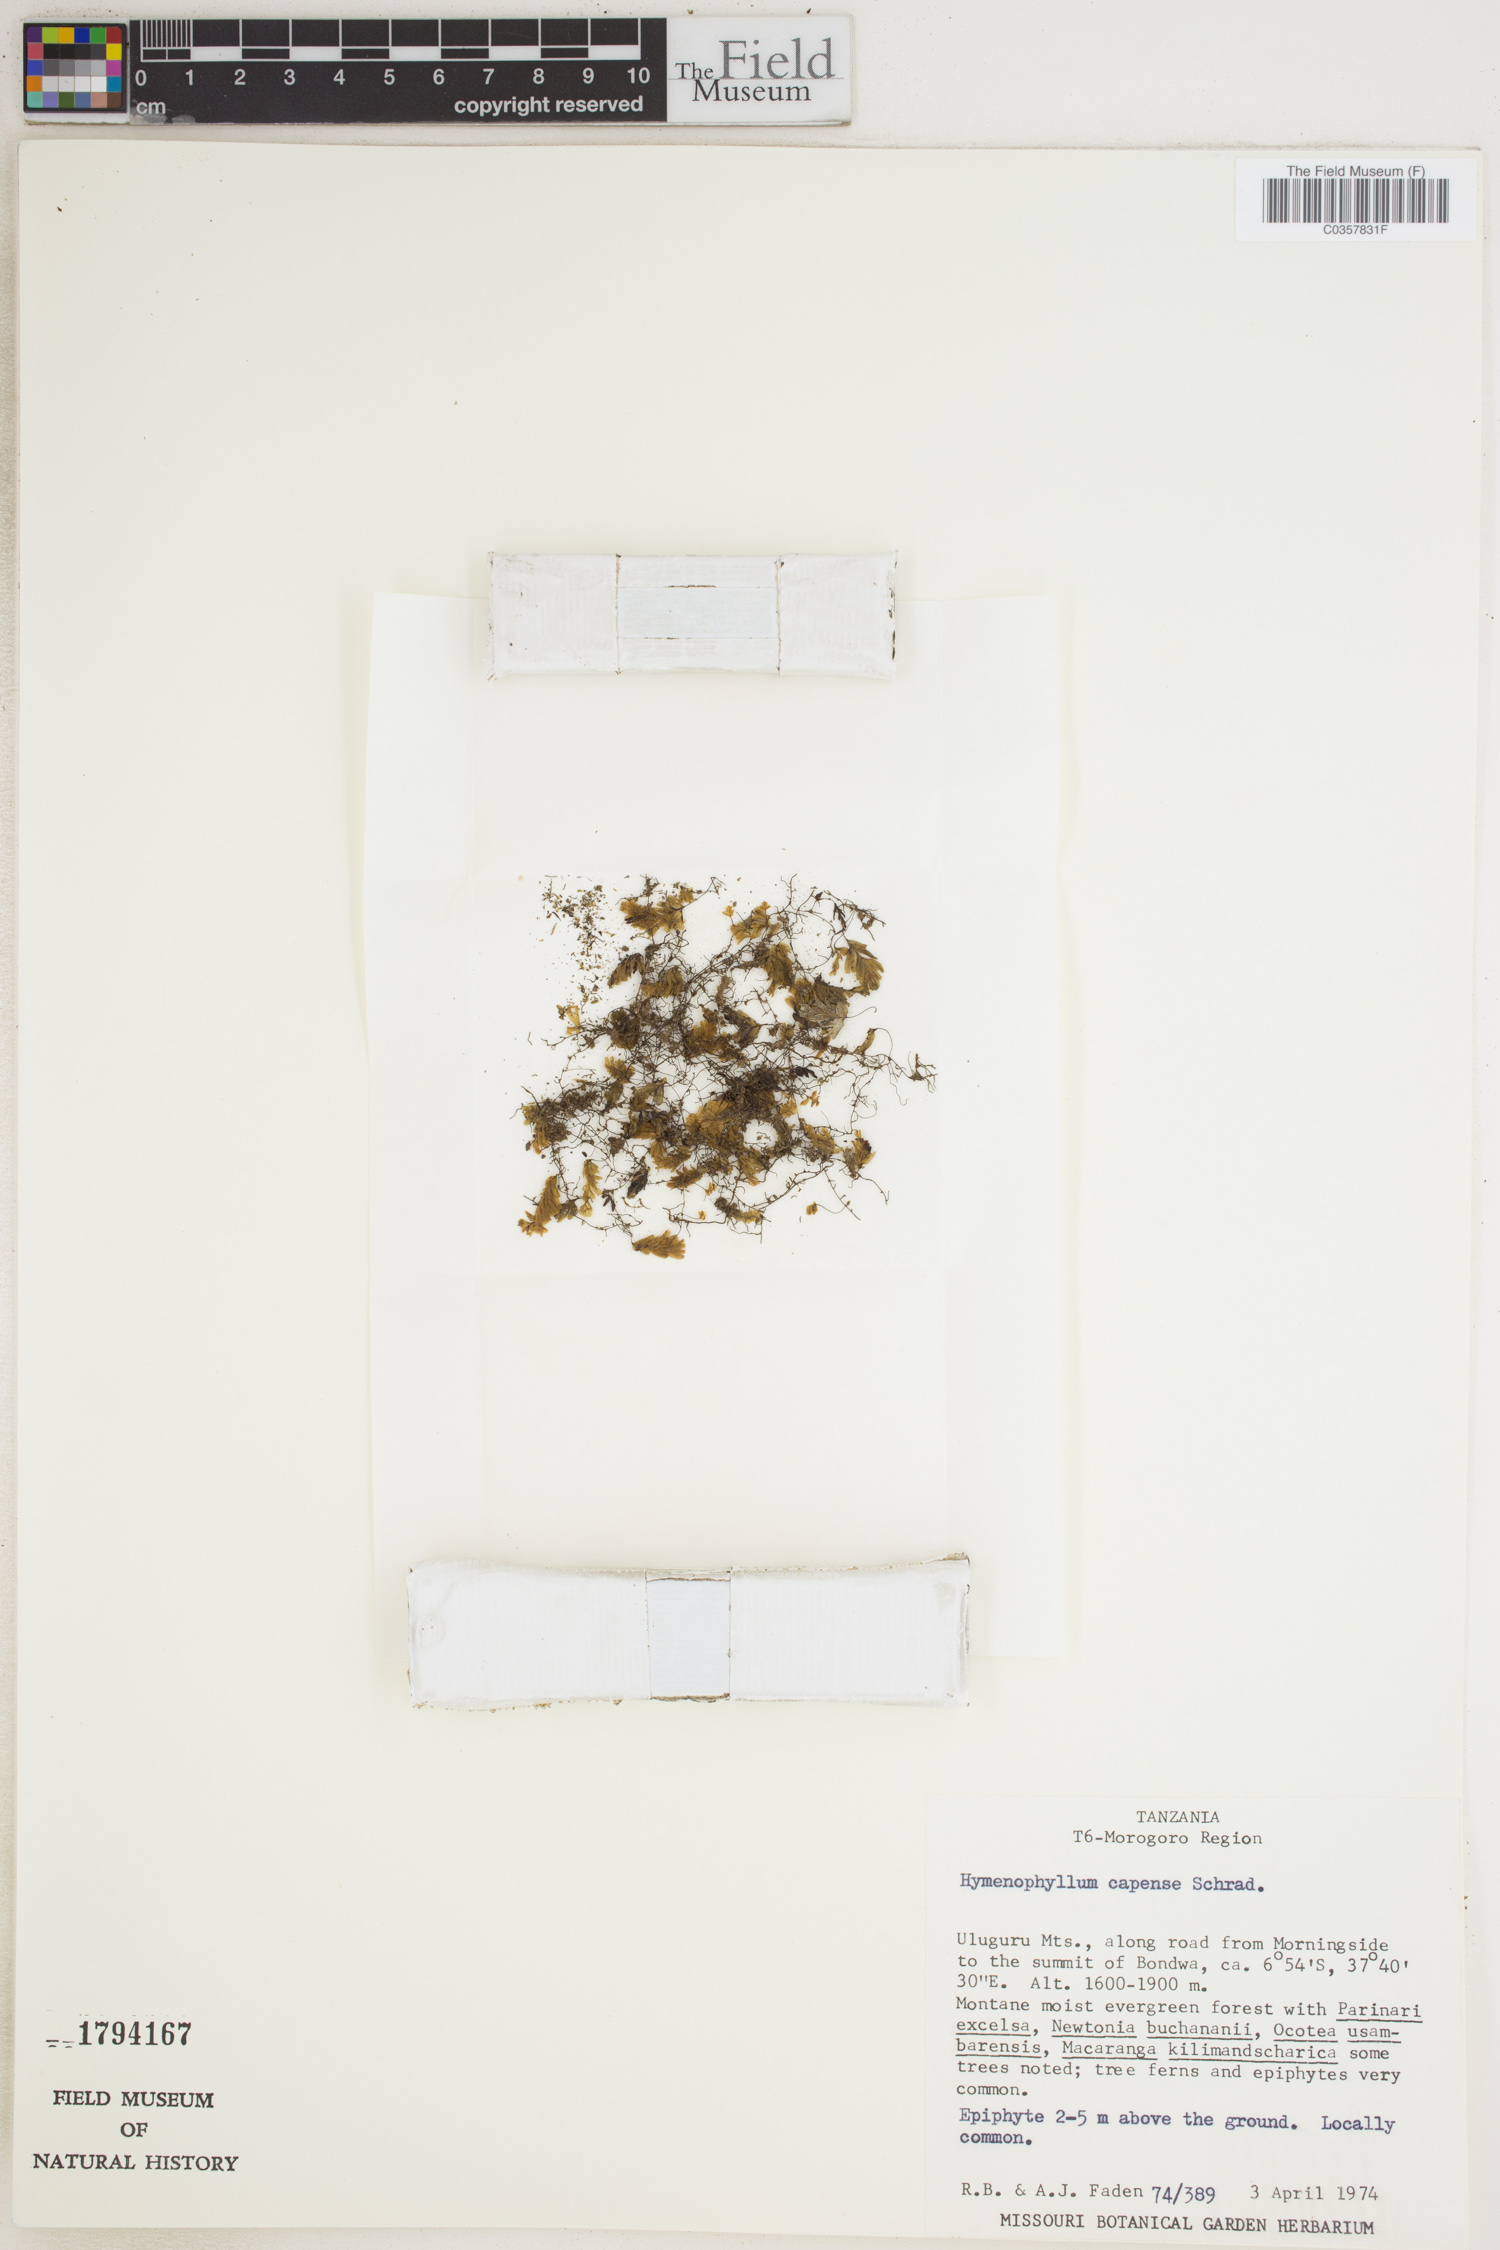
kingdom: Plantae
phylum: Tracheophyta
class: Polypodiopsida
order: Hymenophyllales
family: Hymenophyllaceae
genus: Hymenophyllum
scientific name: Hymenophyllum capense
